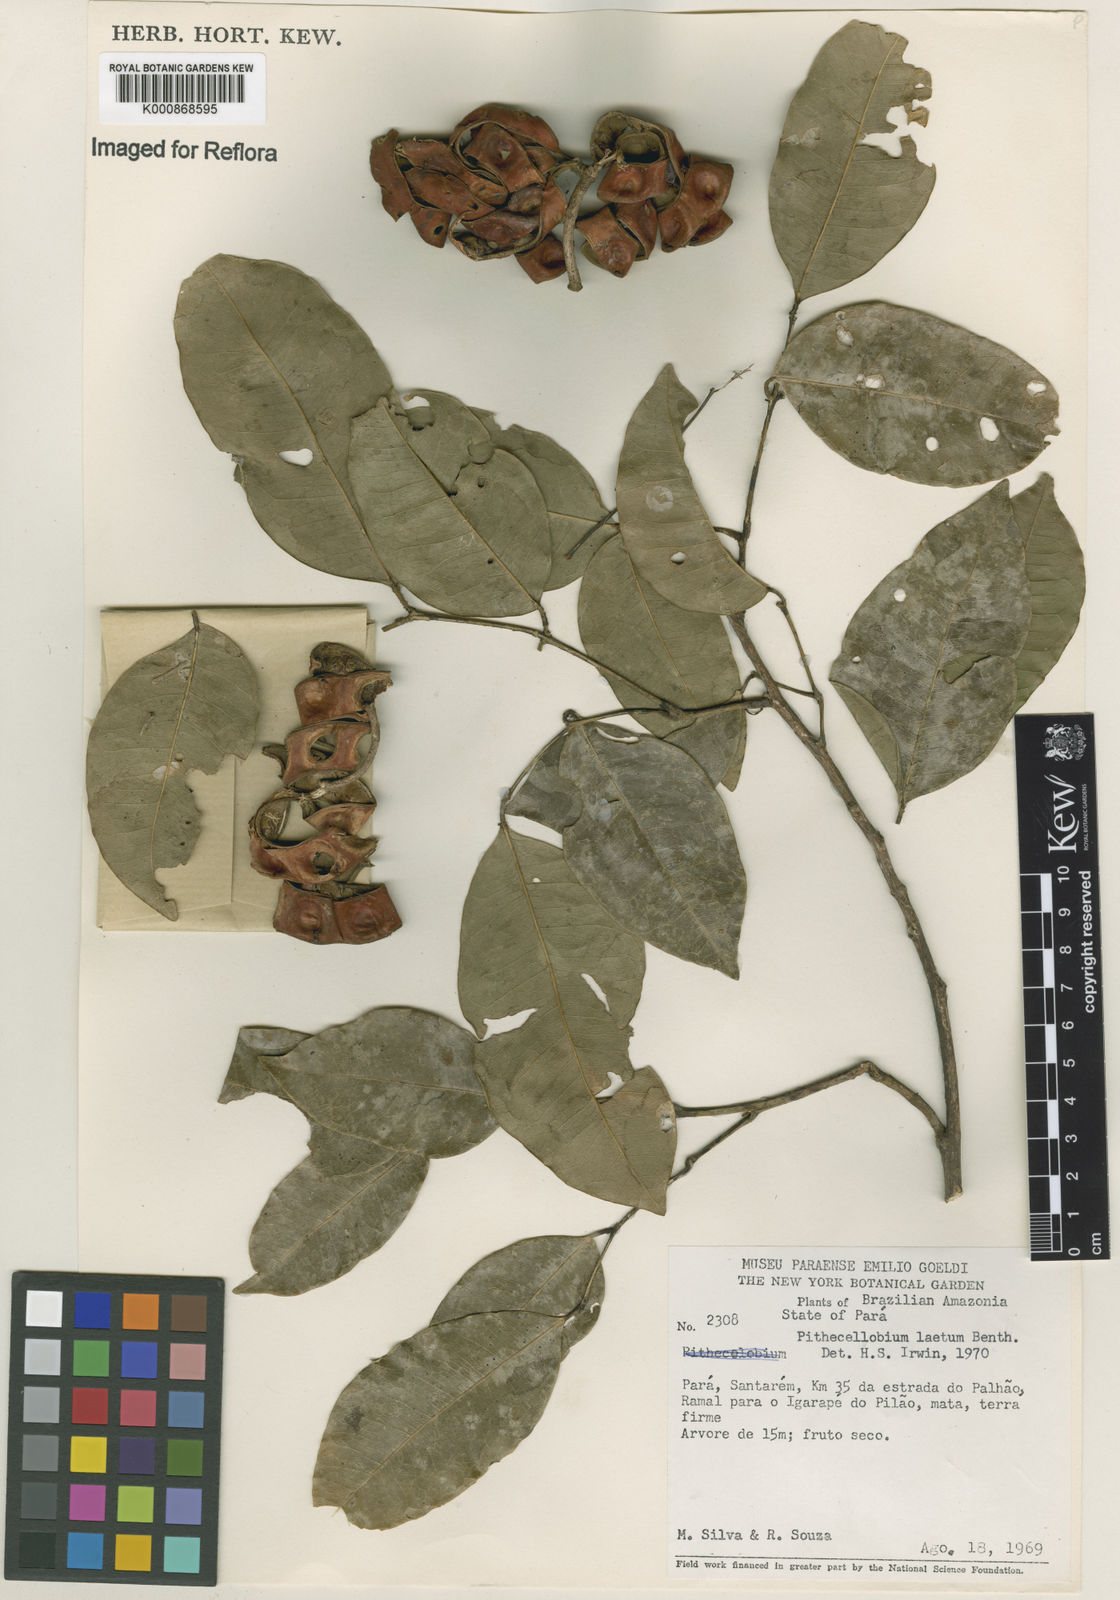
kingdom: Plantae
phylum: Tracheophyta
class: Magnoliopsida
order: Fabales
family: Fabaceae
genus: Jupunba
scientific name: Jupunba laeta
